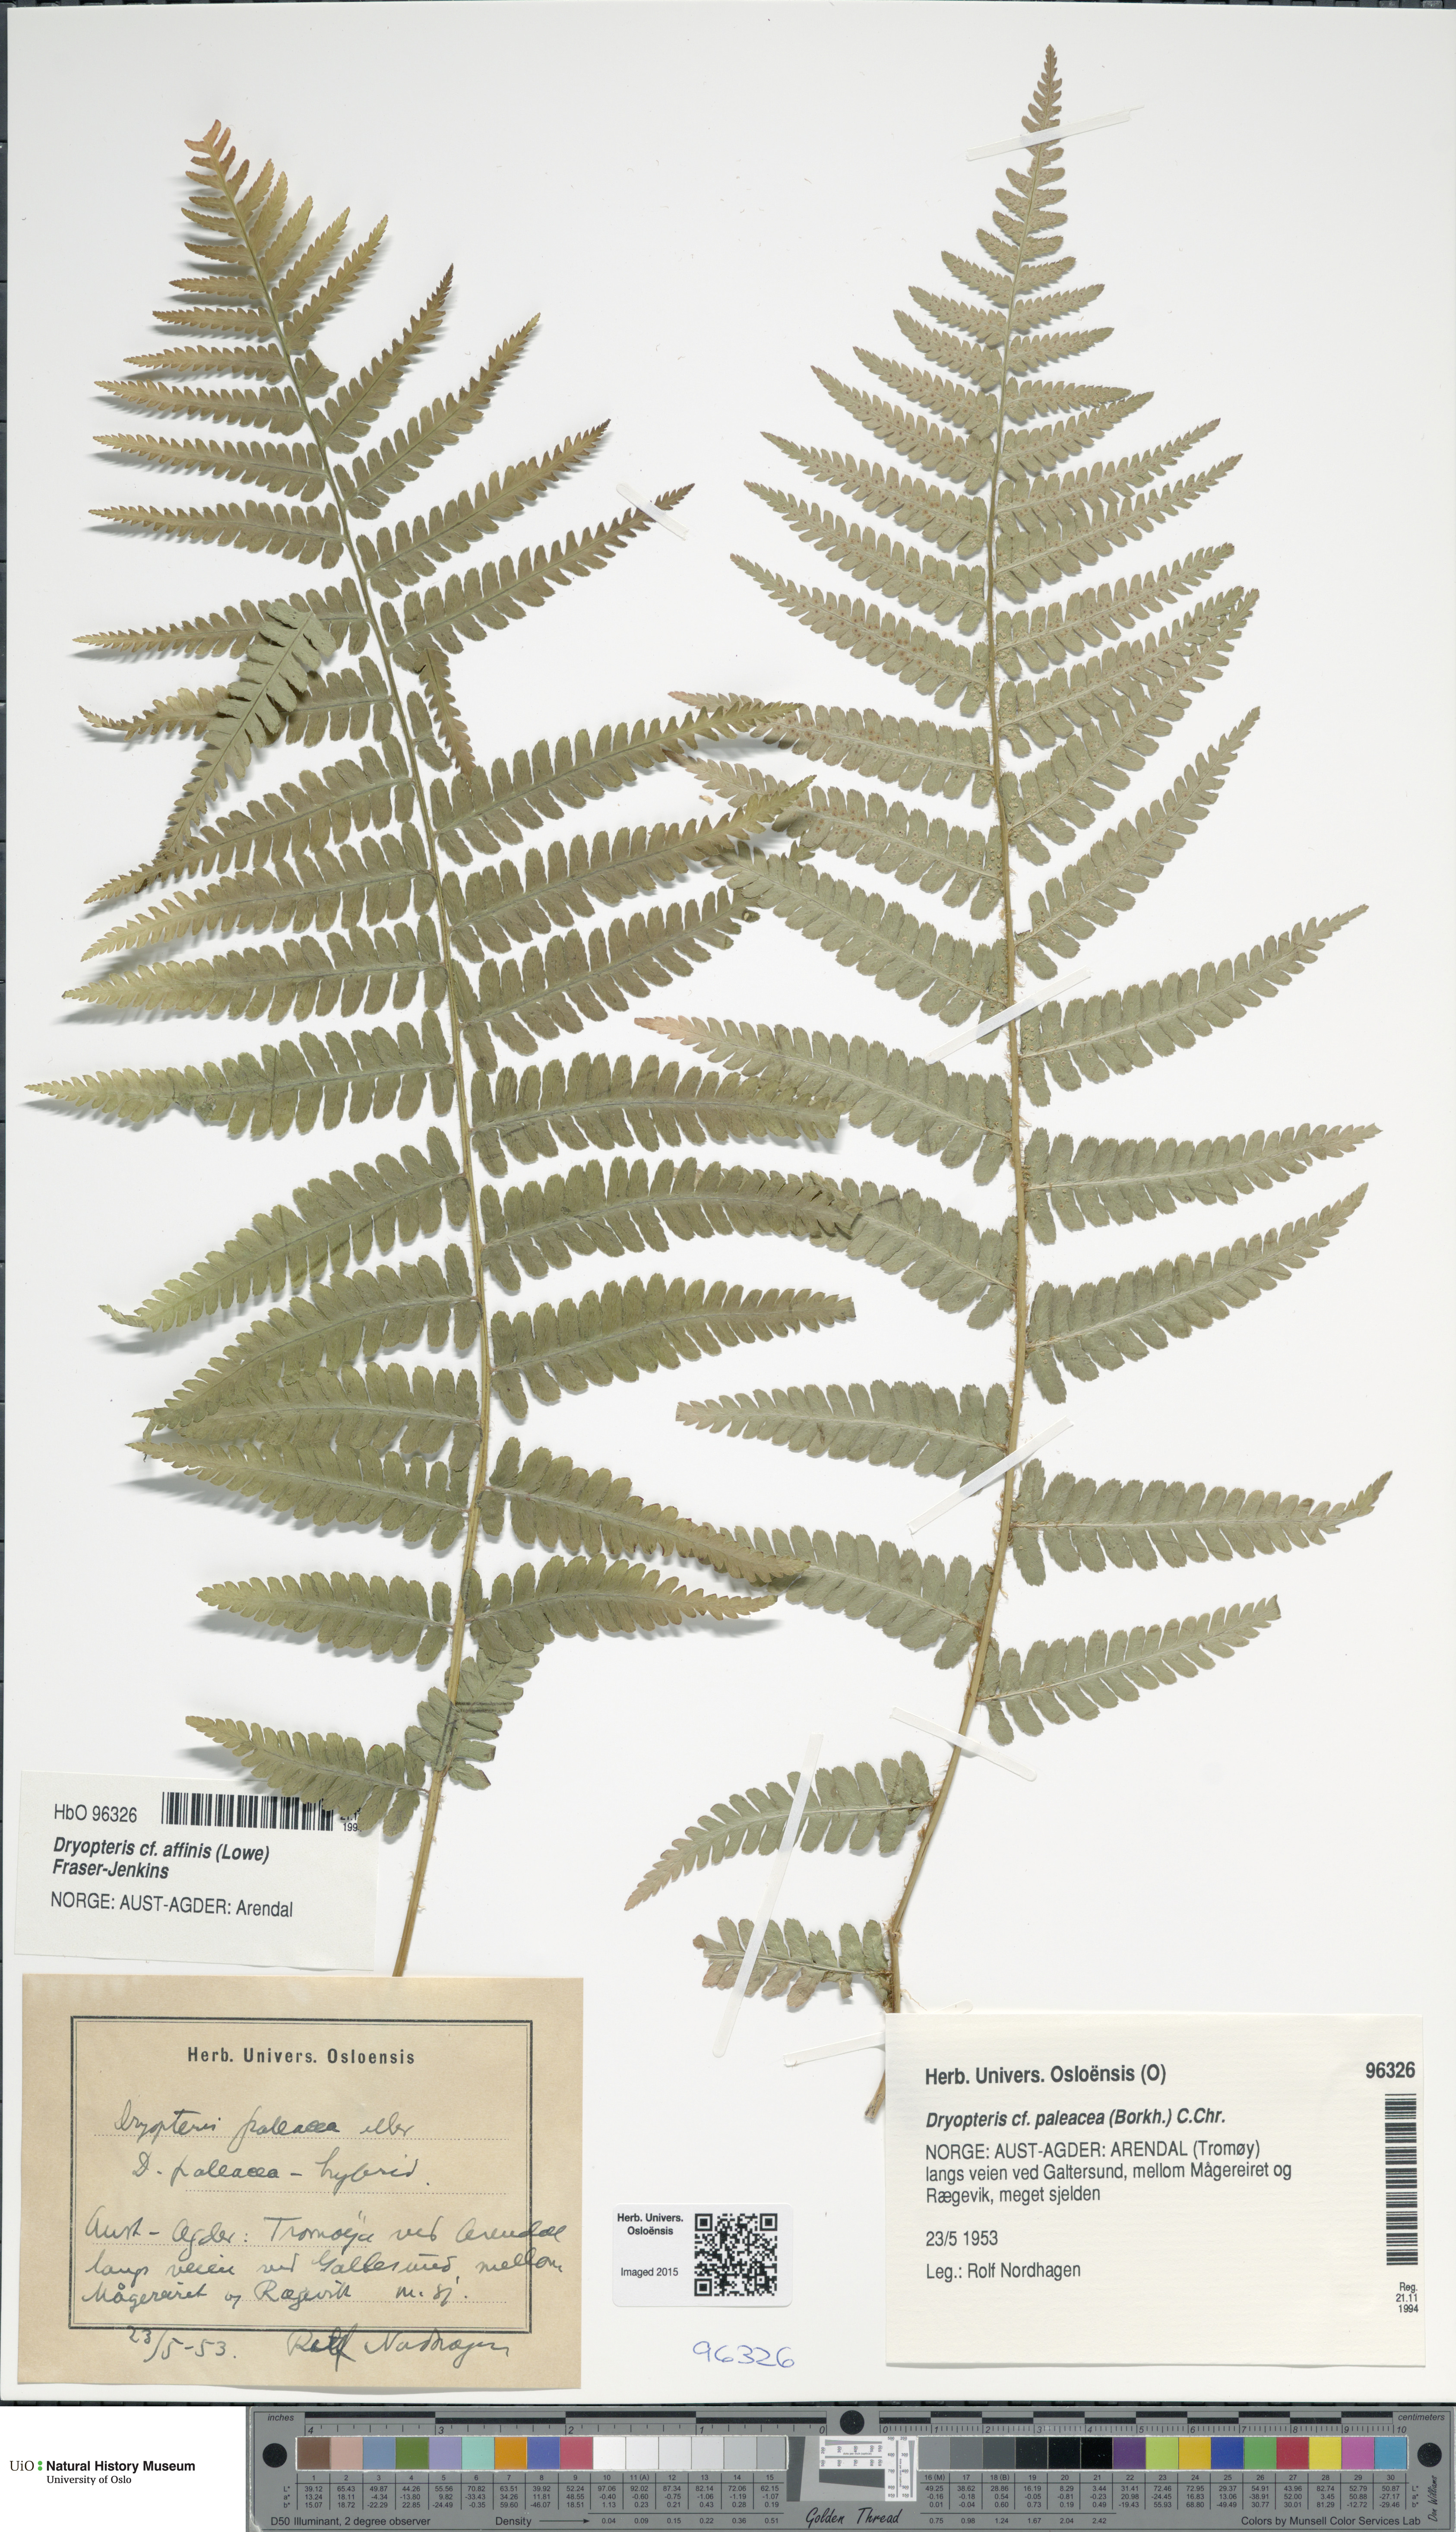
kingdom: Plantae
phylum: Tracheophyta
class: Polypodiopsida
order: Polypodiales
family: Dryopteridaceae
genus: Dryopteris
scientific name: Dryopteris wallichiana
